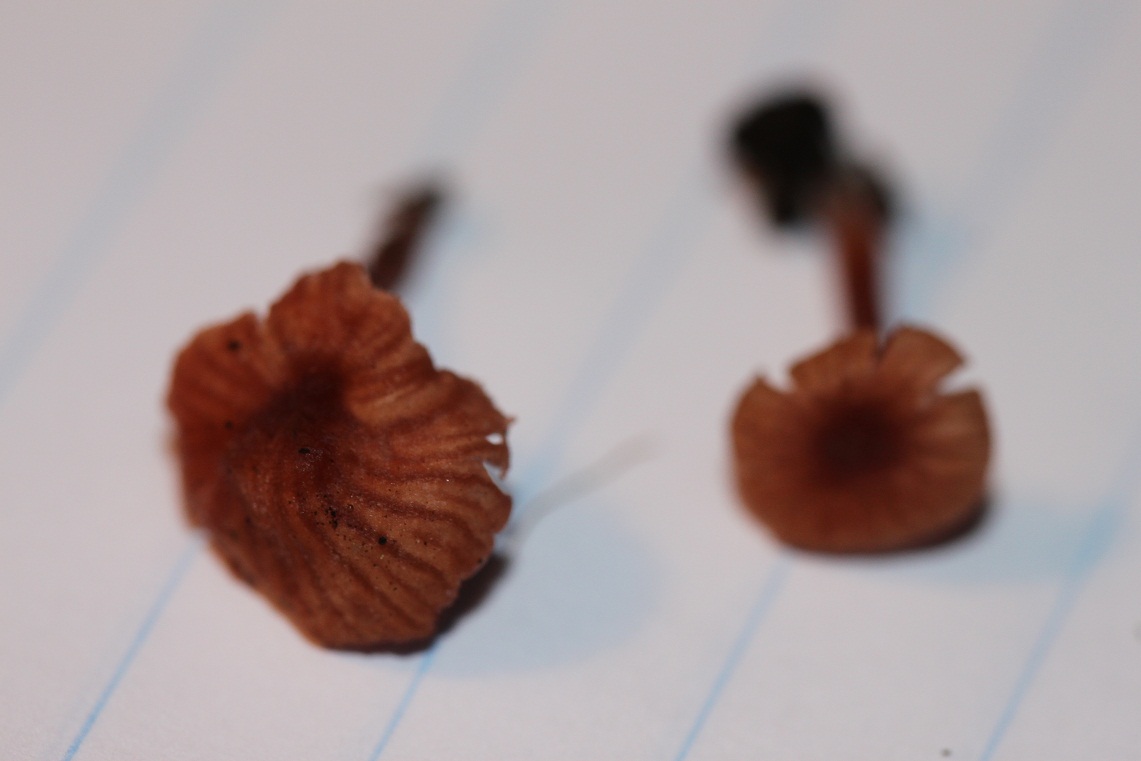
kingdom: Fungi
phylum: Basidiomycota
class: Agaricomycetes
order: Agaricales
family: Hydnangiaceae
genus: Laccaria
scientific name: Laccaria tortilis
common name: krybende ametysthat
